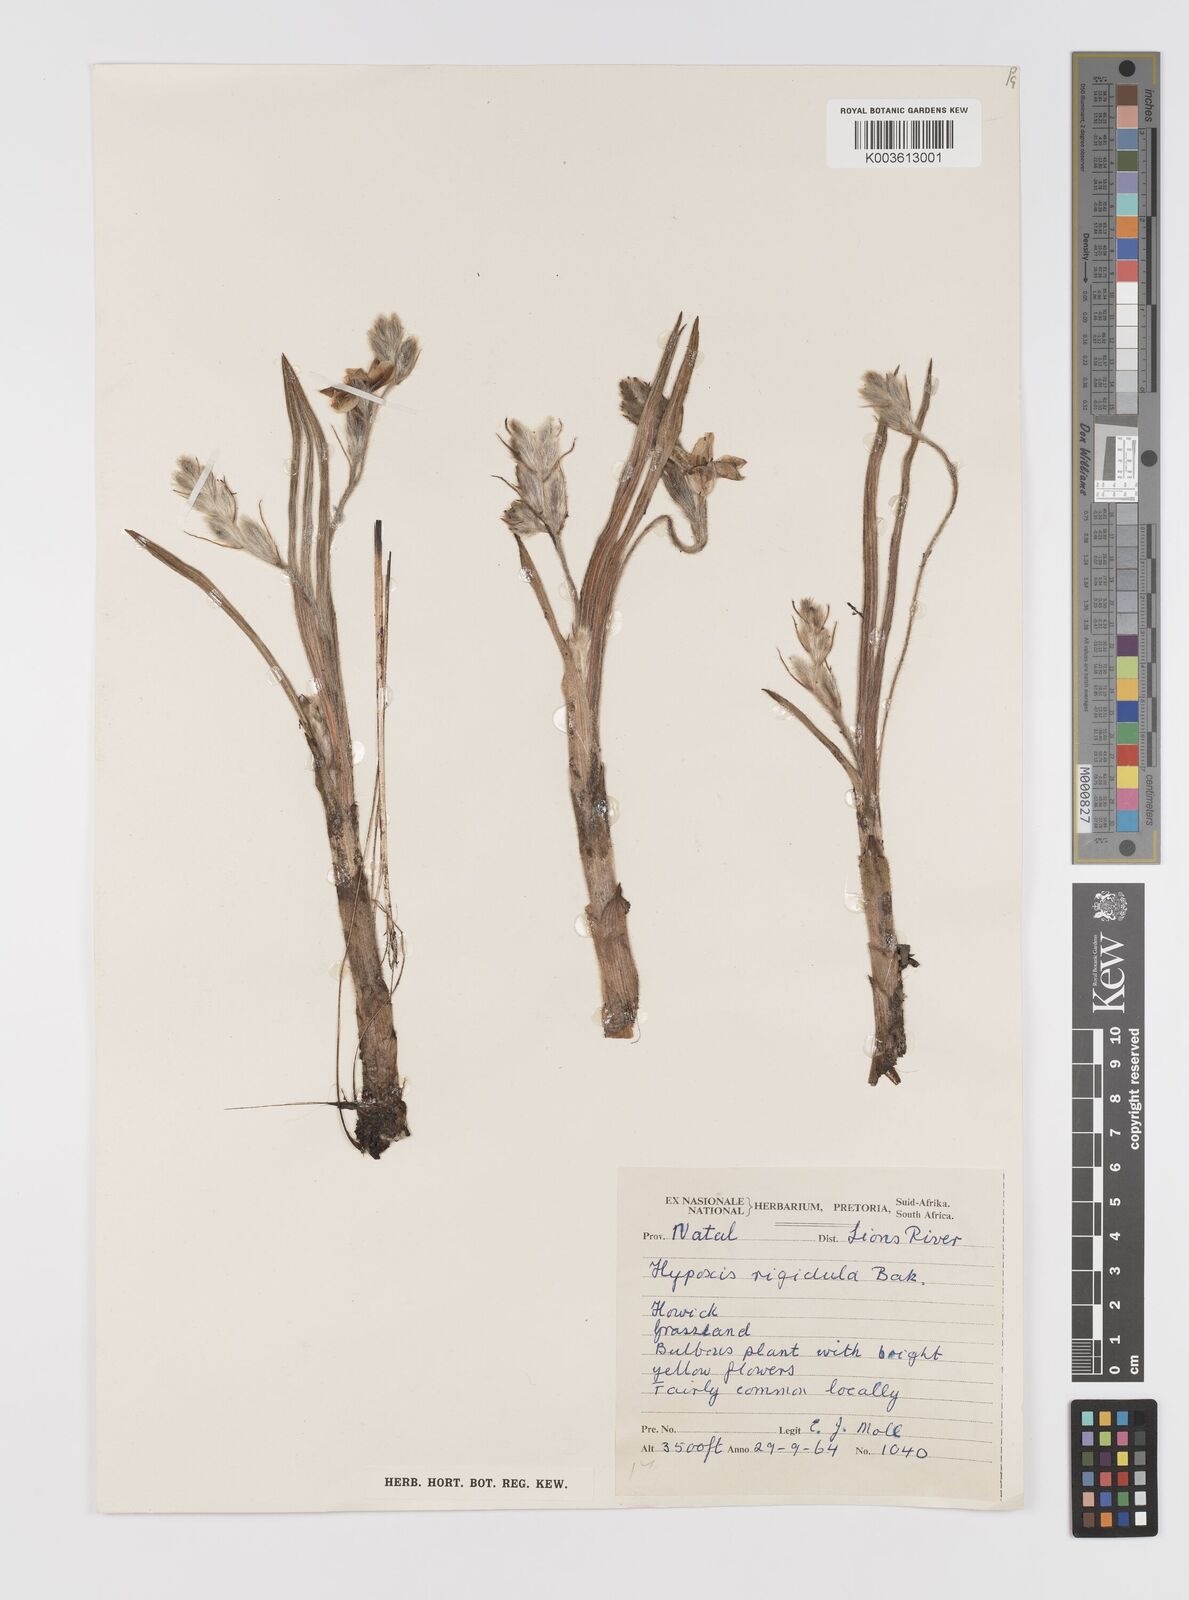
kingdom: Plantae
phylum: Tracheophyta
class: Liliopsida
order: Asparagales
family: Hypoxidaceae
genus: Hypoxis
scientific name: Hypoxis rigidula
